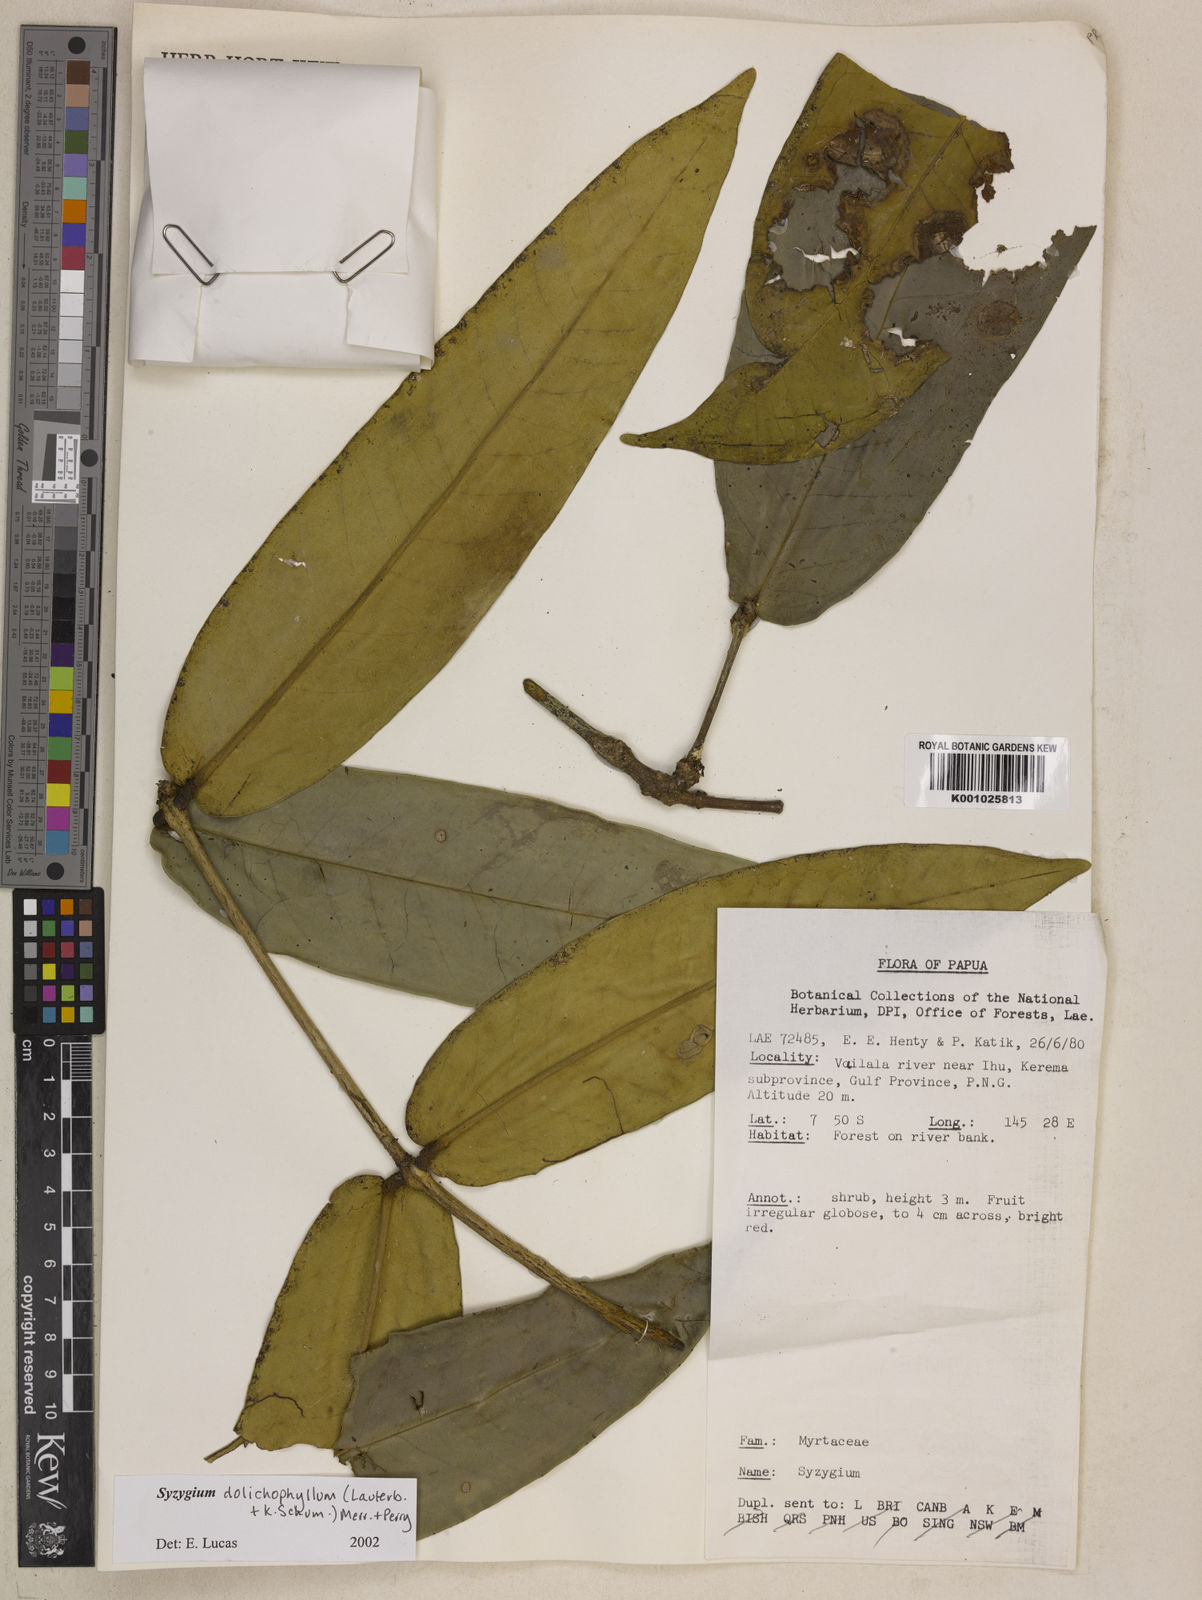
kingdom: Plantae
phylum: Tracheophyta
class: Magnoliopsida
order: Myrtales
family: Myrtaceae
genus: Syzygium
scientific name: Syzygium dolichophyllum
